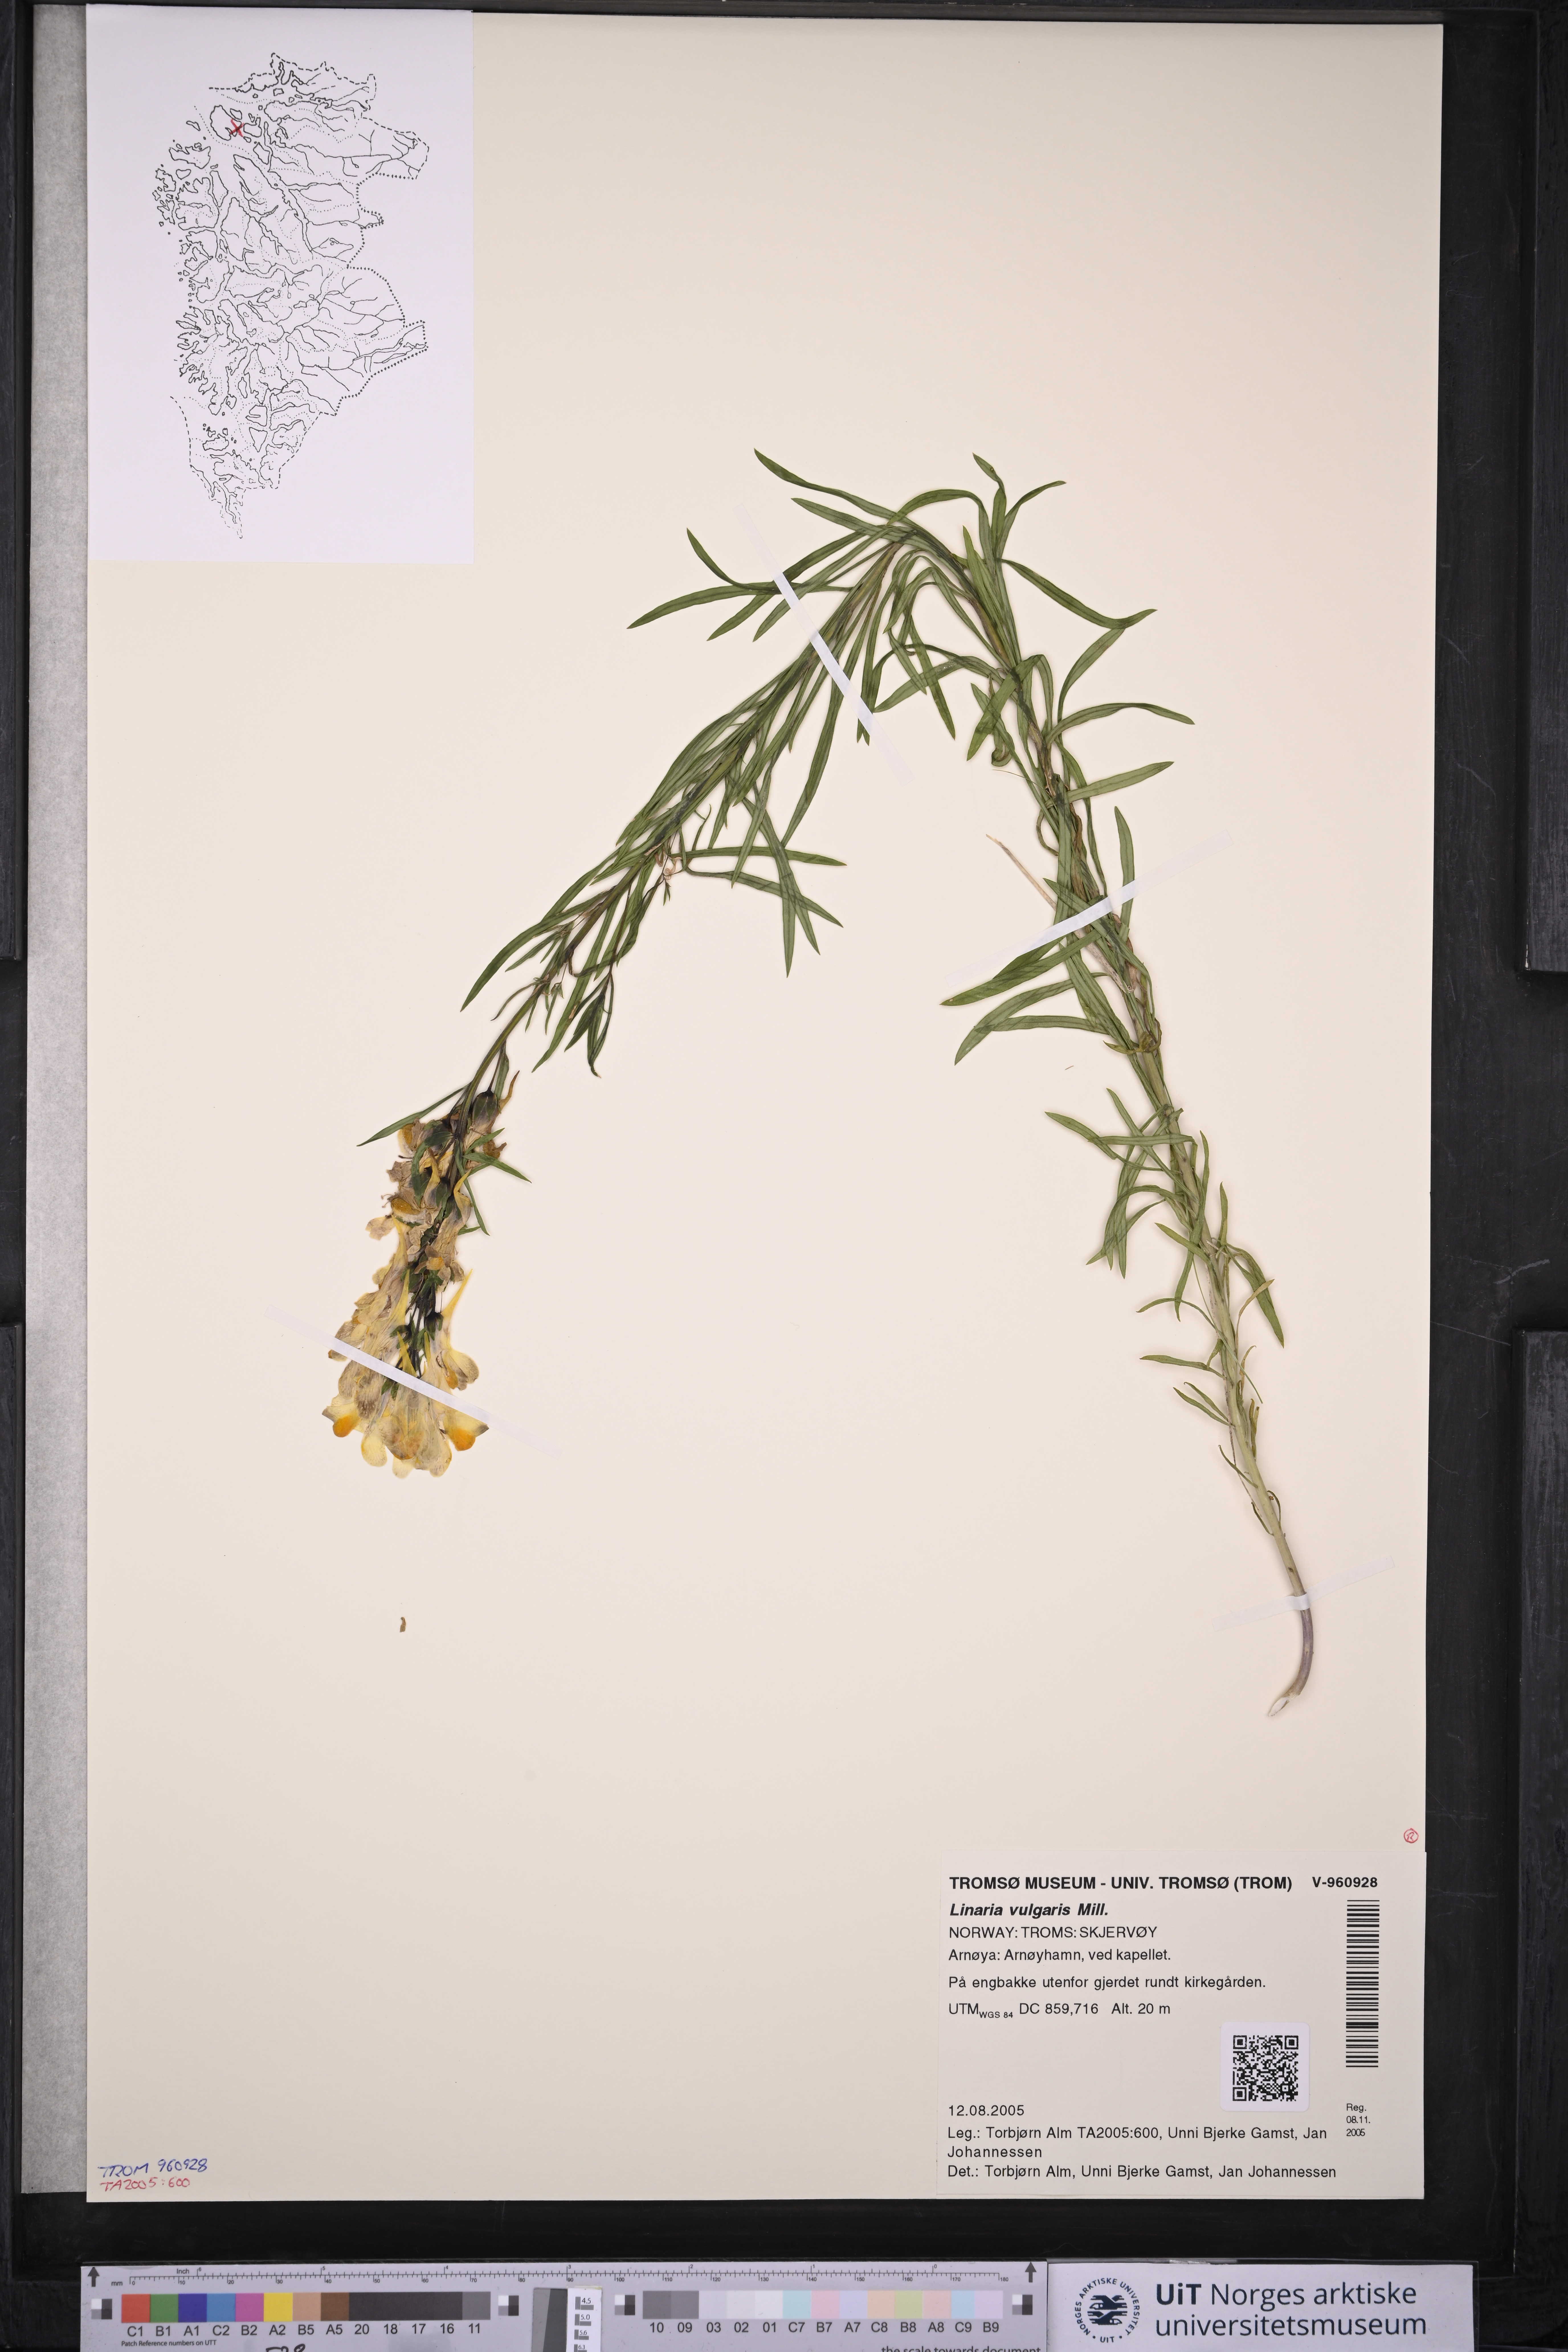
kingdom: Plantae
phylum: Tracheophyta
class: Magnoliopsida
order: Lamiales
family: Plantaginaceae
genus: Linaria
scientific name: Linaria vulgaris
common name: Butter and eggs
